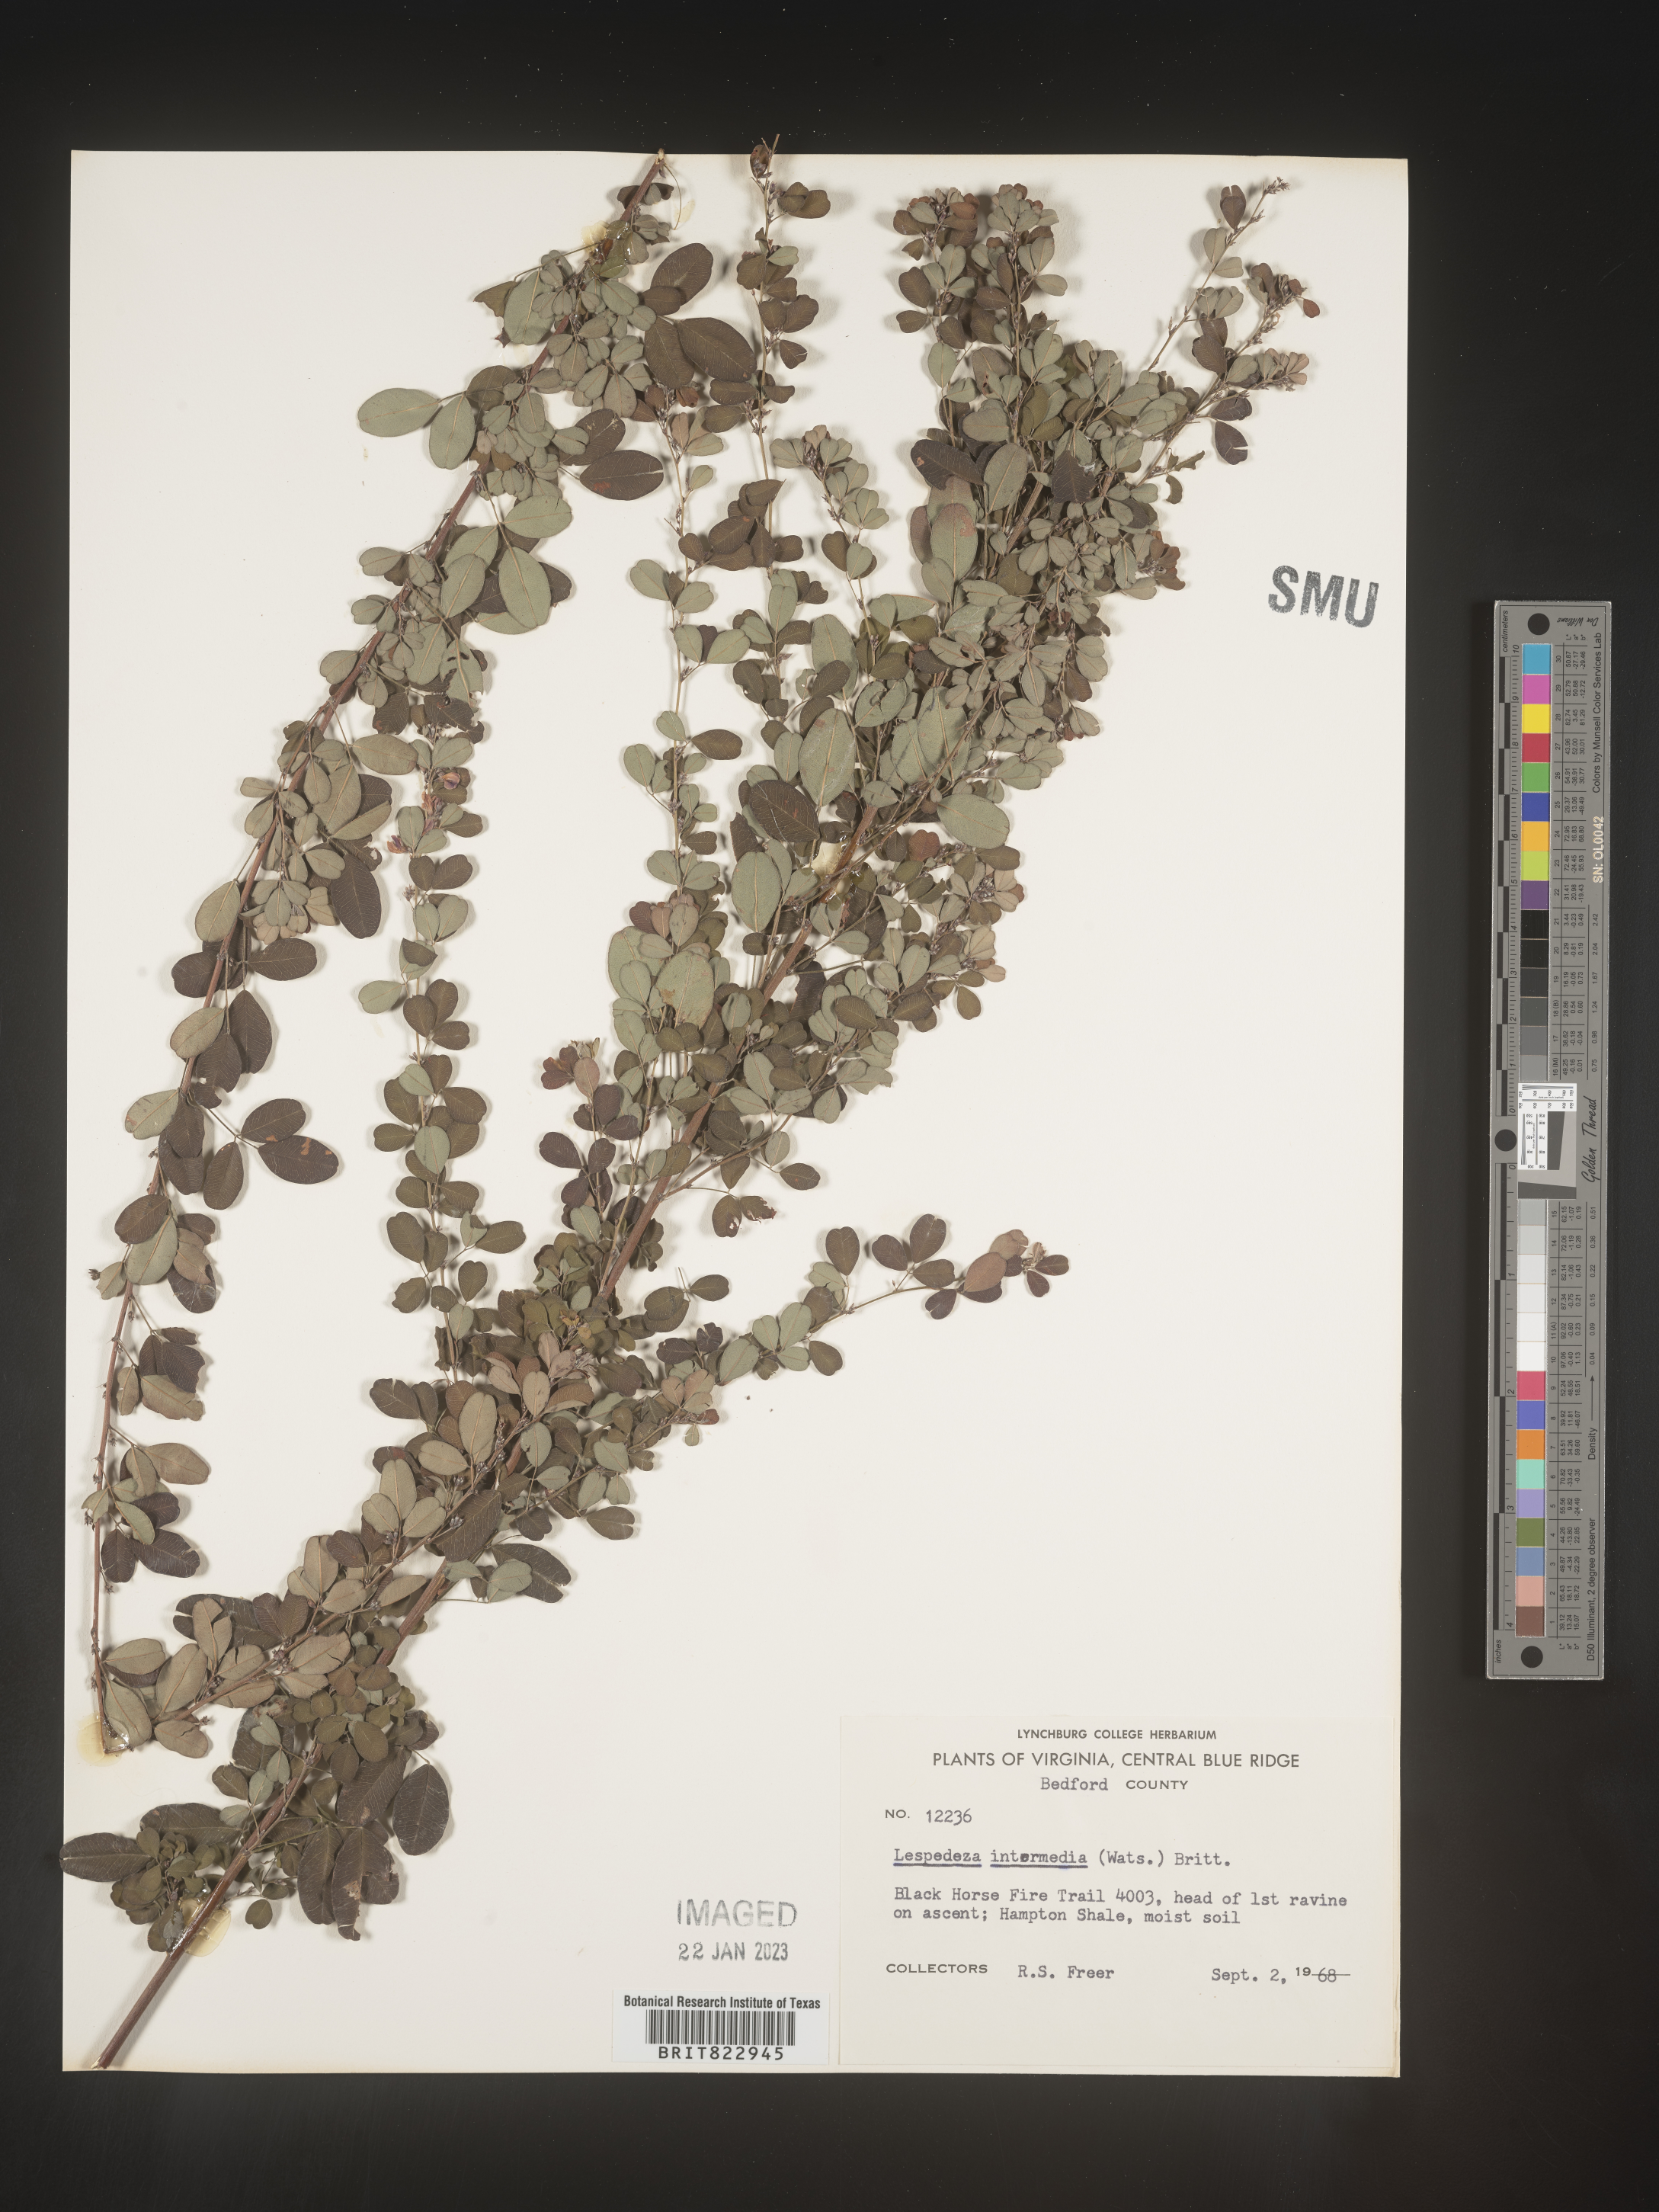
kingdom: Plantae
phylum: Tracheophyta
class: Magnoliopsida
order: Fabales
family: Fabaceae
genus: Lespedeza
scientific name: Lespedeza
